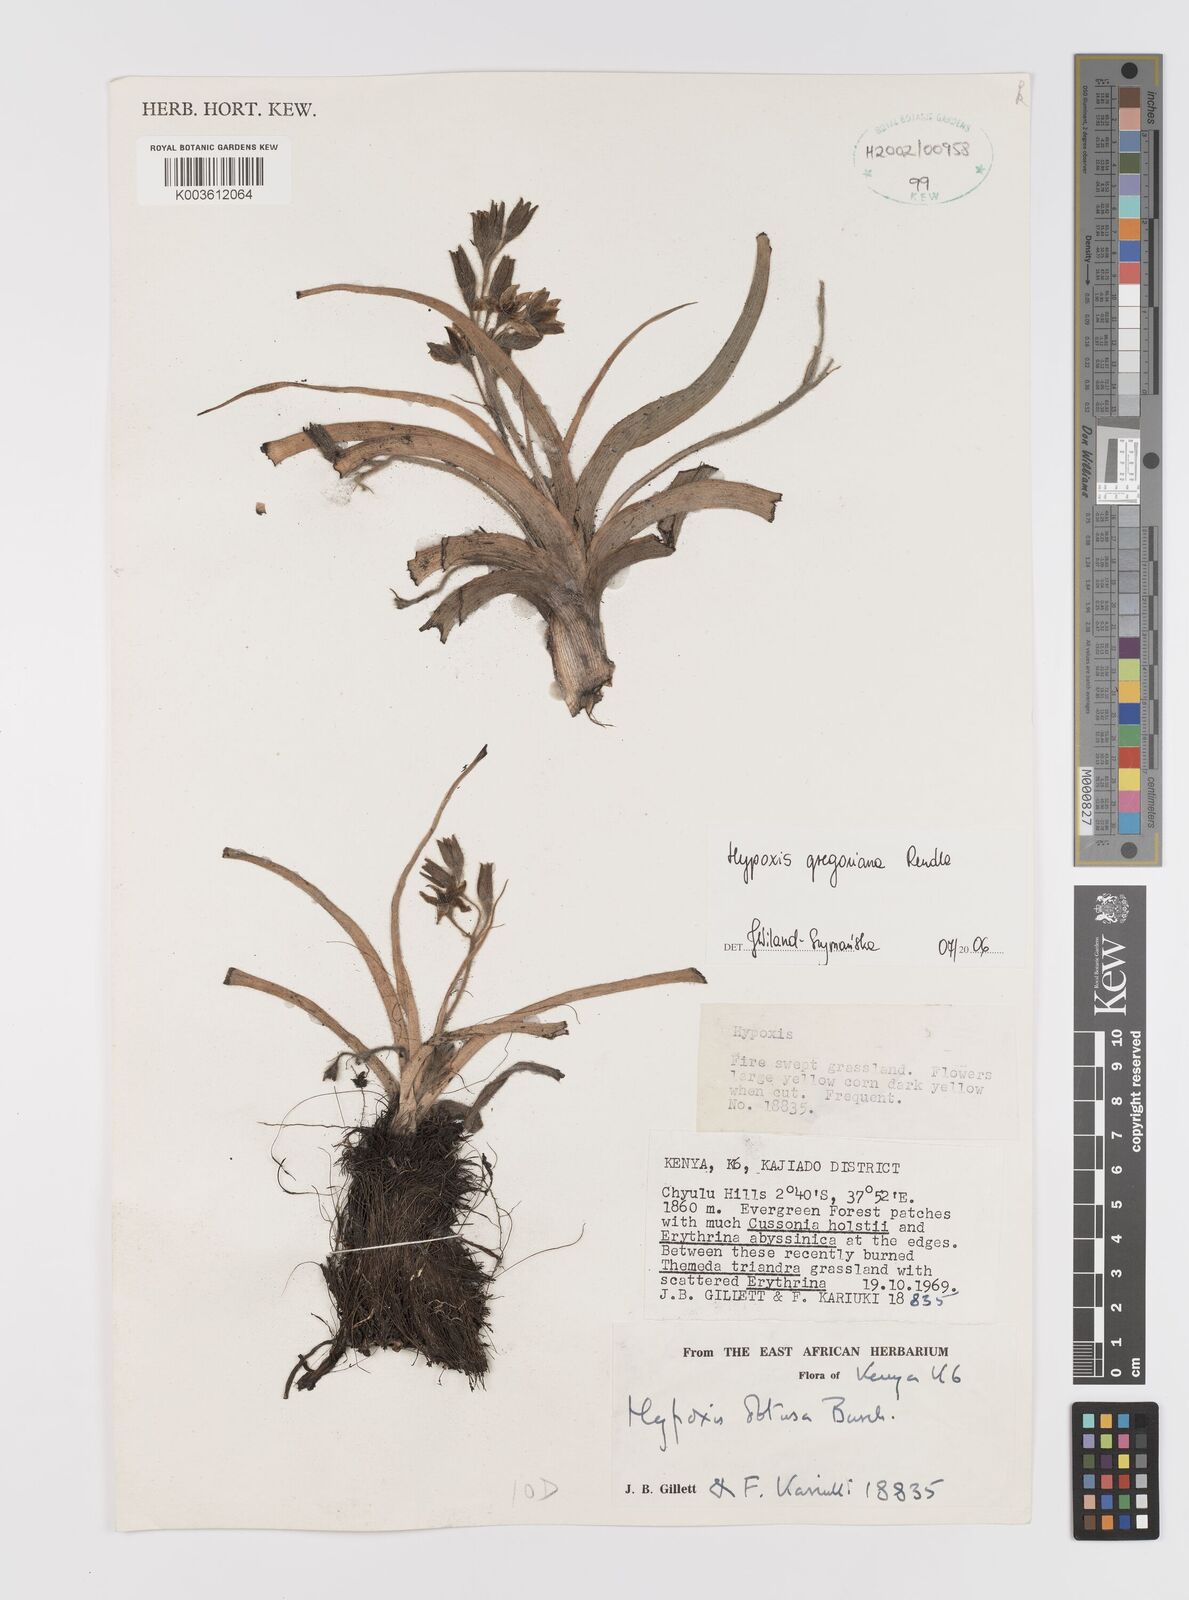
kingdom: Plantae
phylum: Tracheophyta
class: Liliopsida
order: Asparagales
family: Hypoxidaceae
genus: Hypoxis
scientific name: Hypoxis gregoriana
